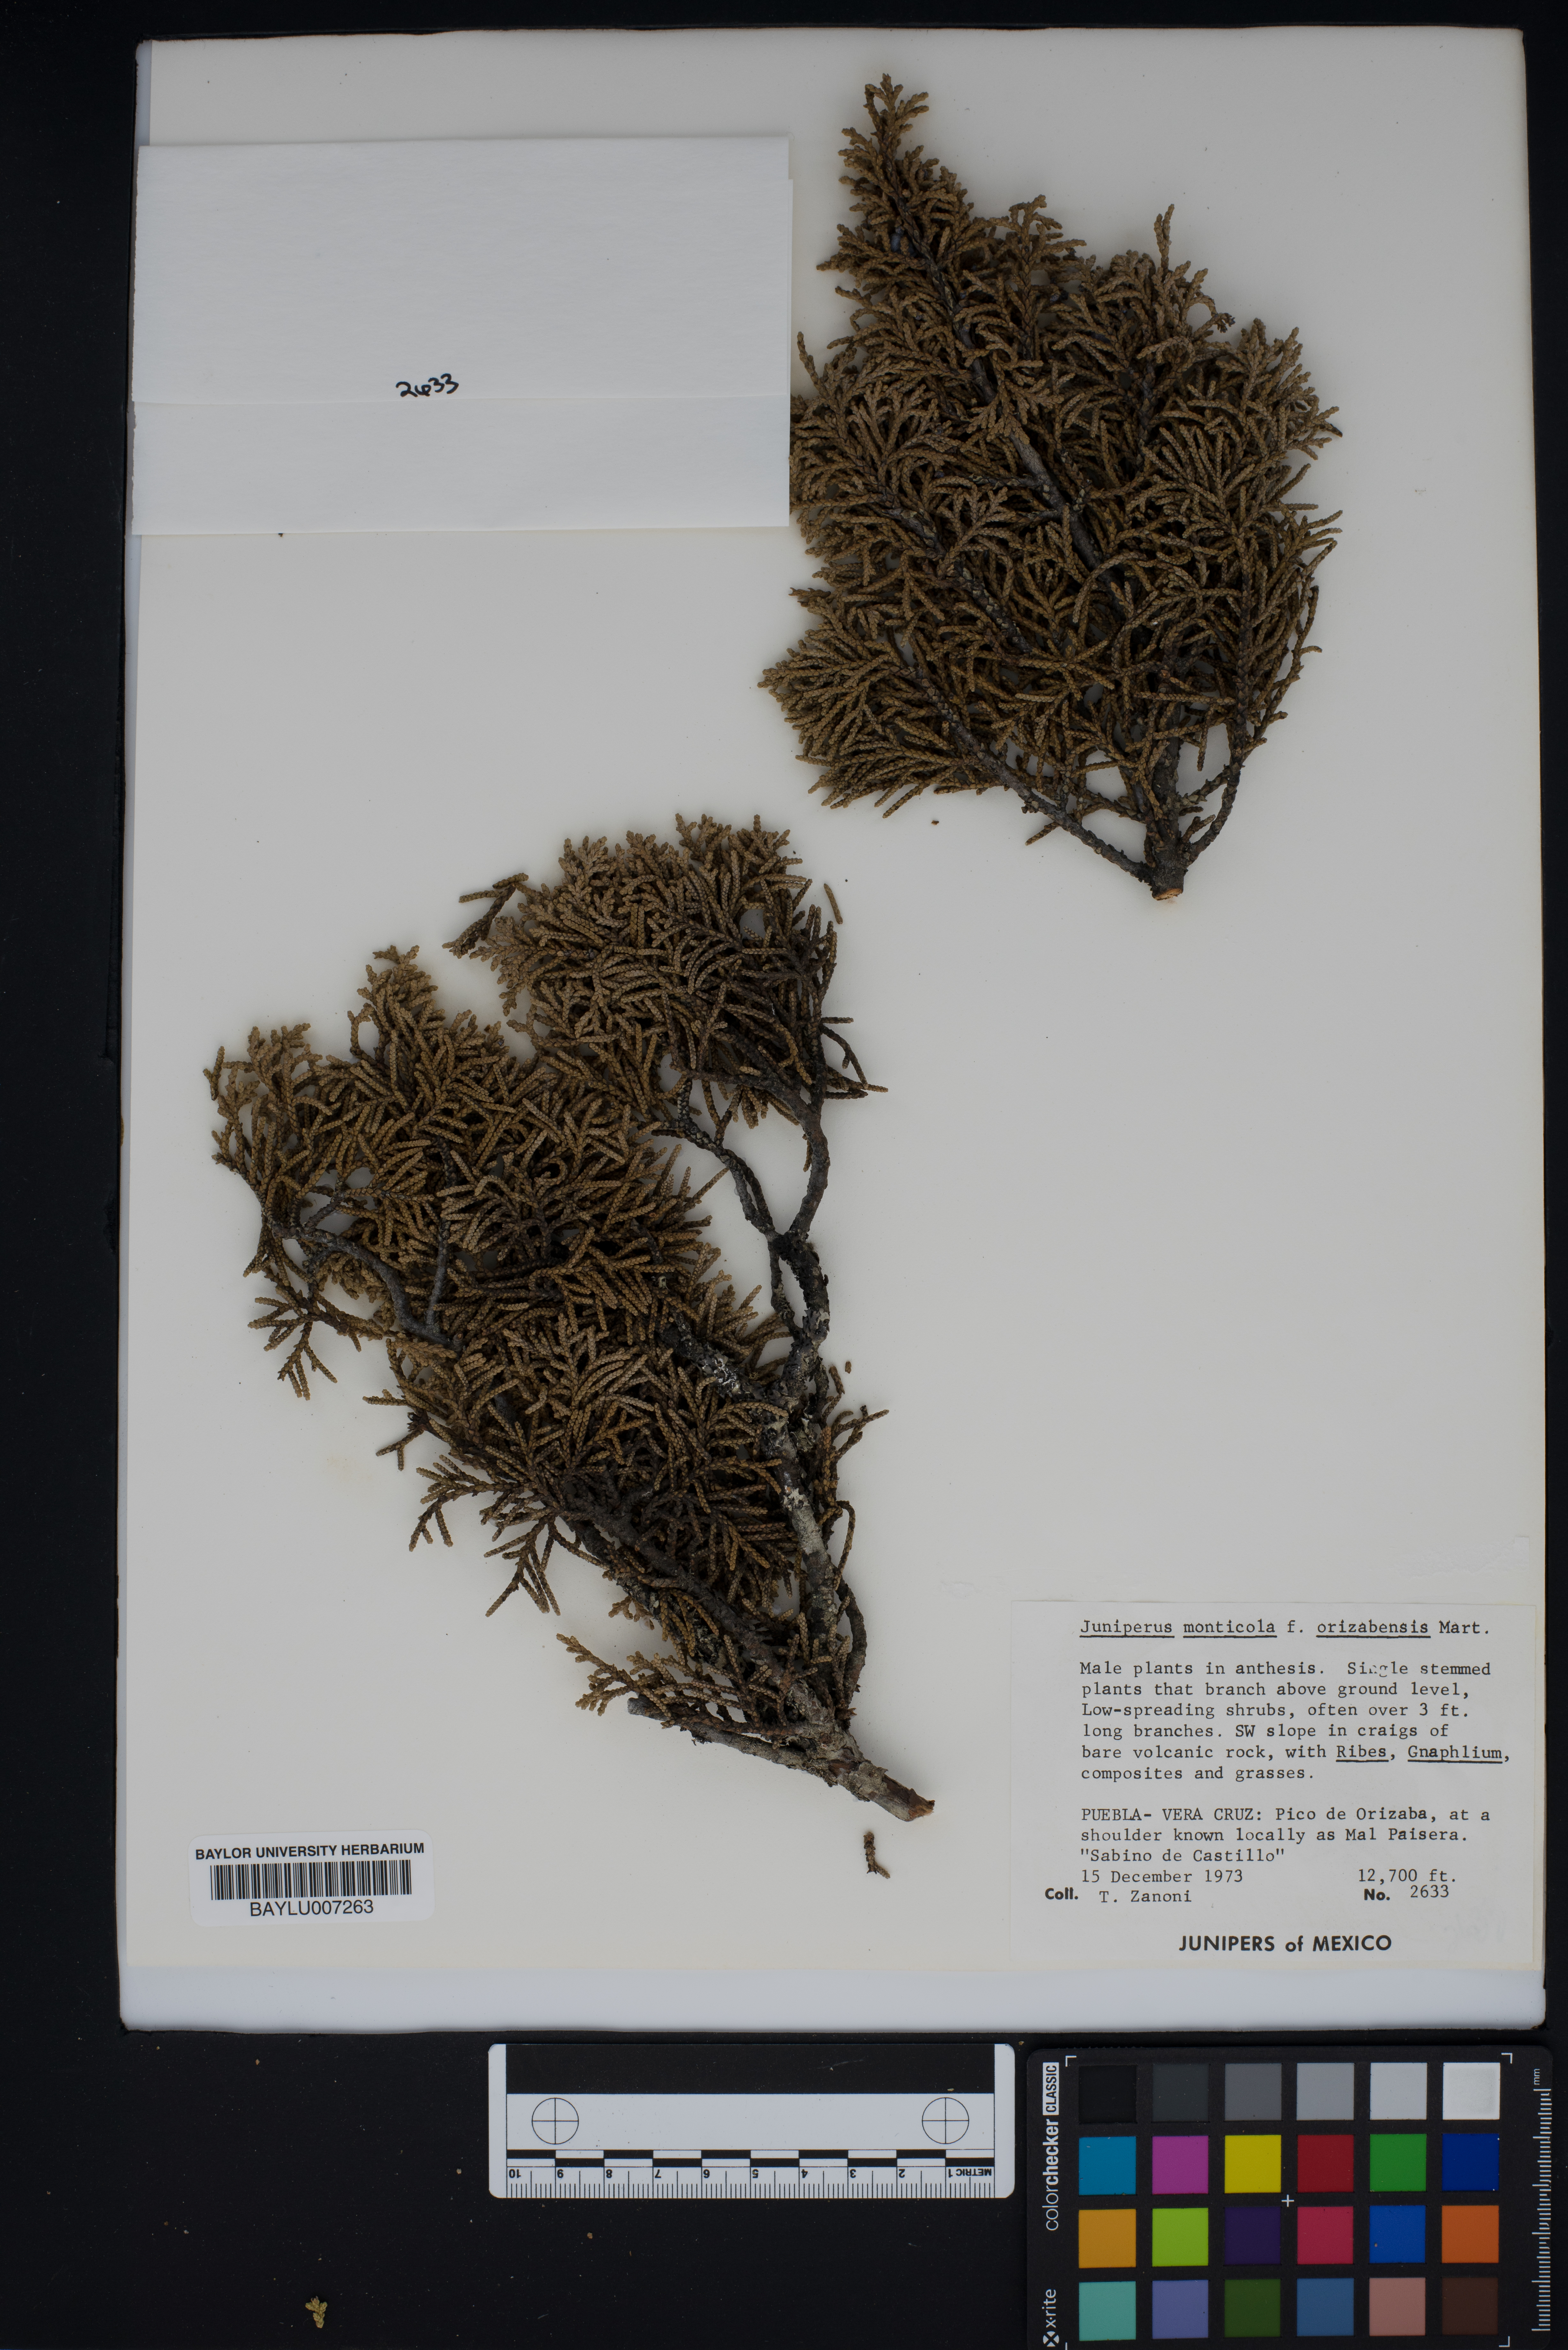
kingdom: Plantae
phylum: Tracheophyta
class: Pinopsida
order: Pinales
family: Cupressaceae
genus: Juniperus
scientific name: Juniperus monticola
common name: Mexican juniper
